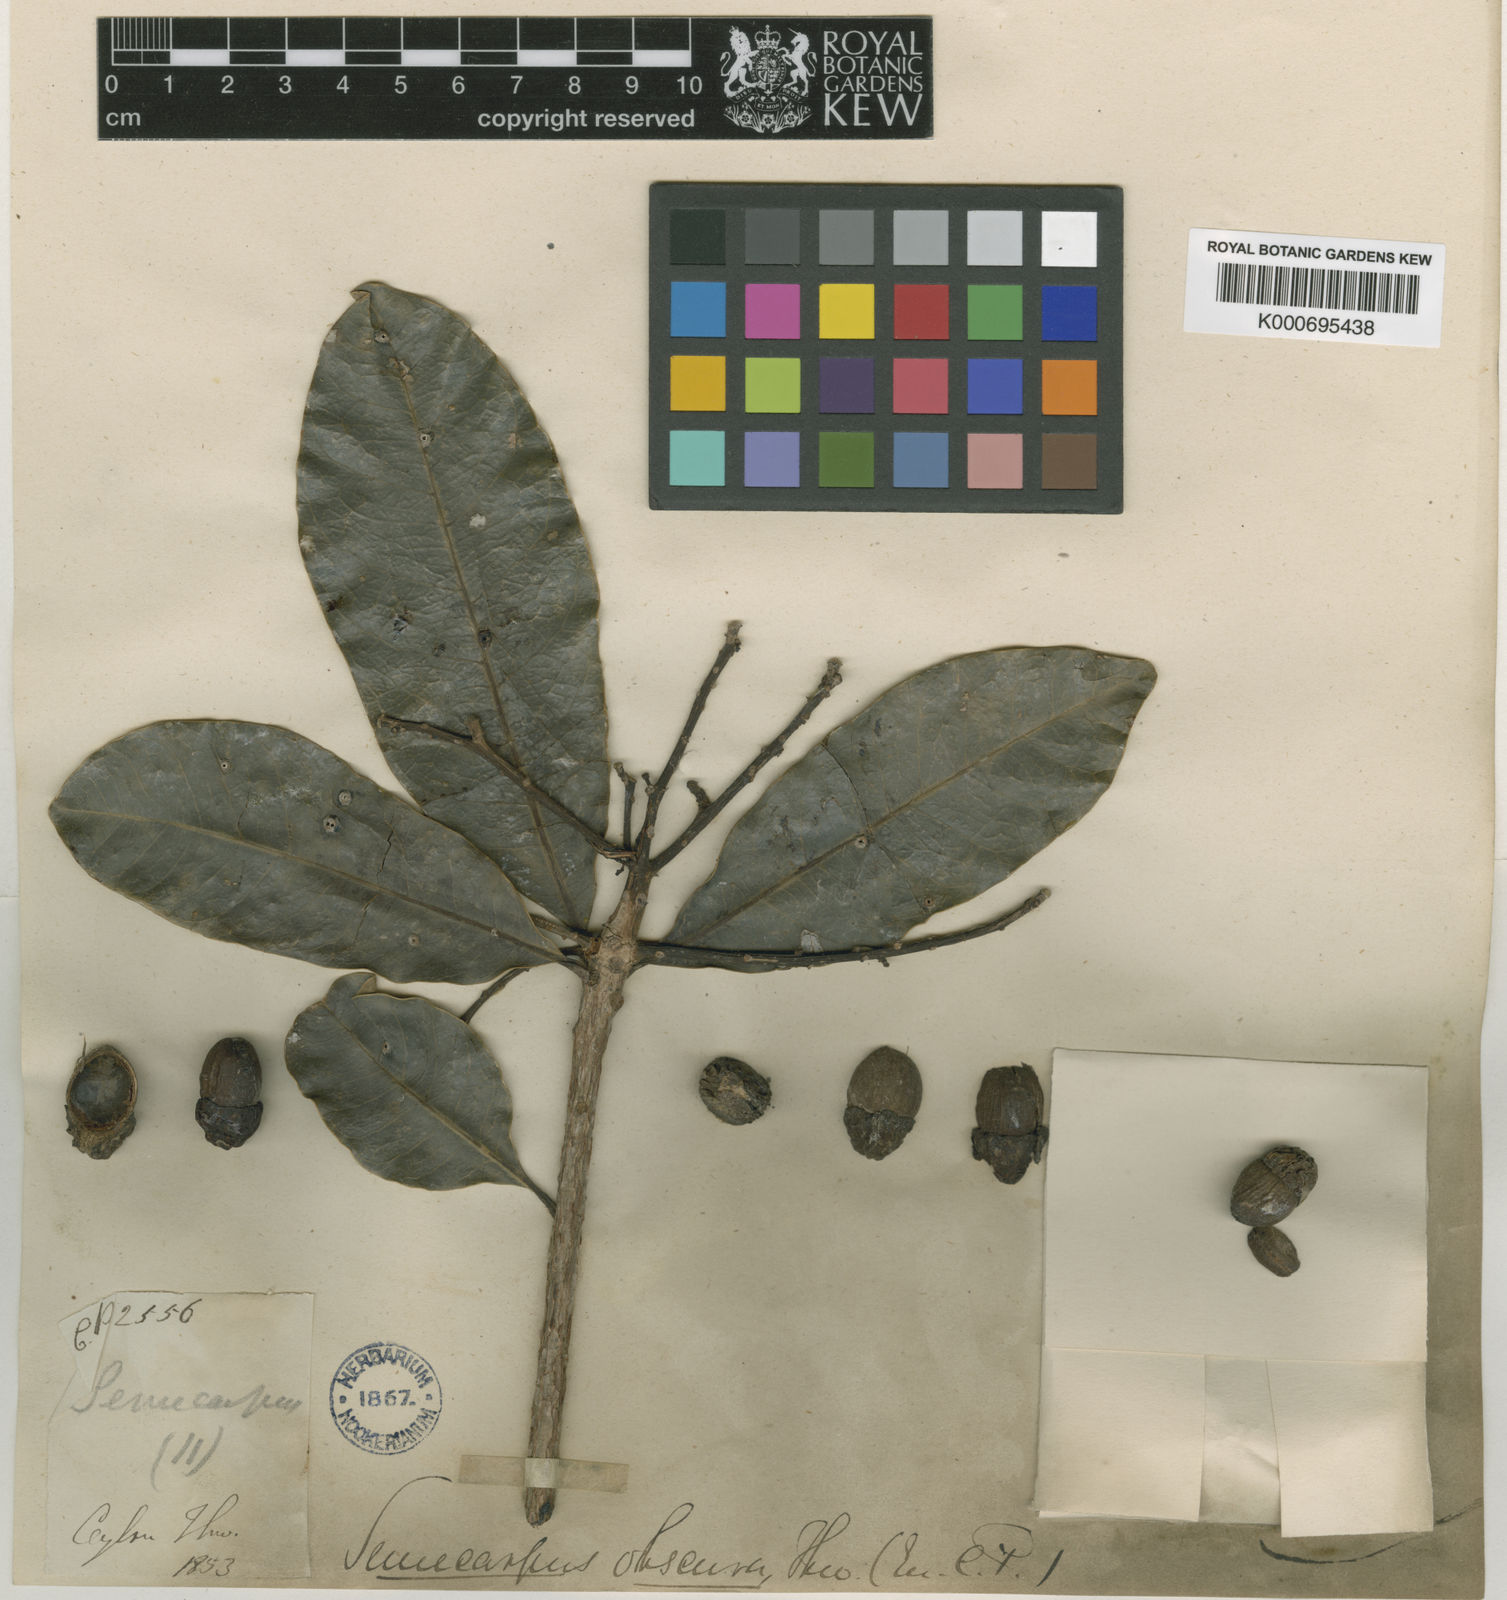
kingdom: Plantae
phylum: Tracheophyta
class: Magnoliopsida
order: Sapindales
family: Anacardiaceae
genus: Semecarpus
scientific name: Semecarpus walkeri
